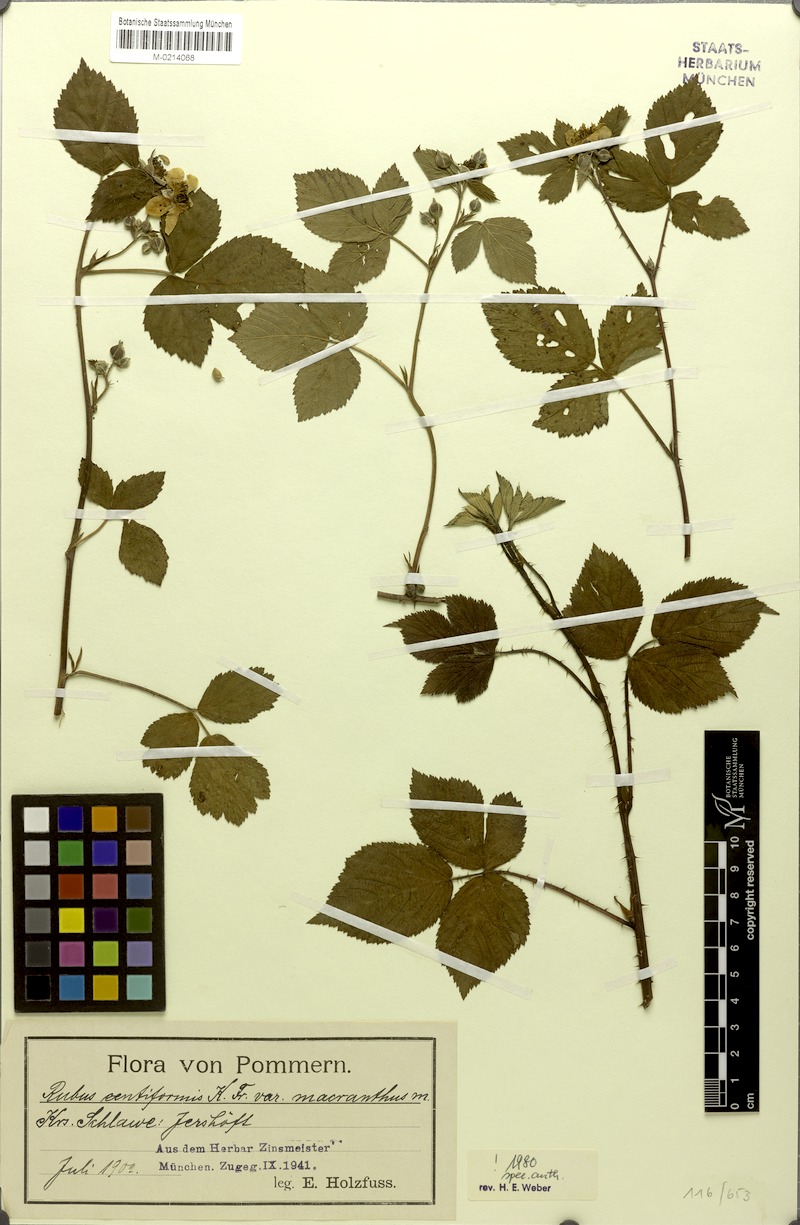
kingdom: Plantae
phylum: Tracheophyta
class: Magnoliopsida
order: Rosales
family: Rosaceae
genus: Rubus
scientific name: Rubus centiformis
